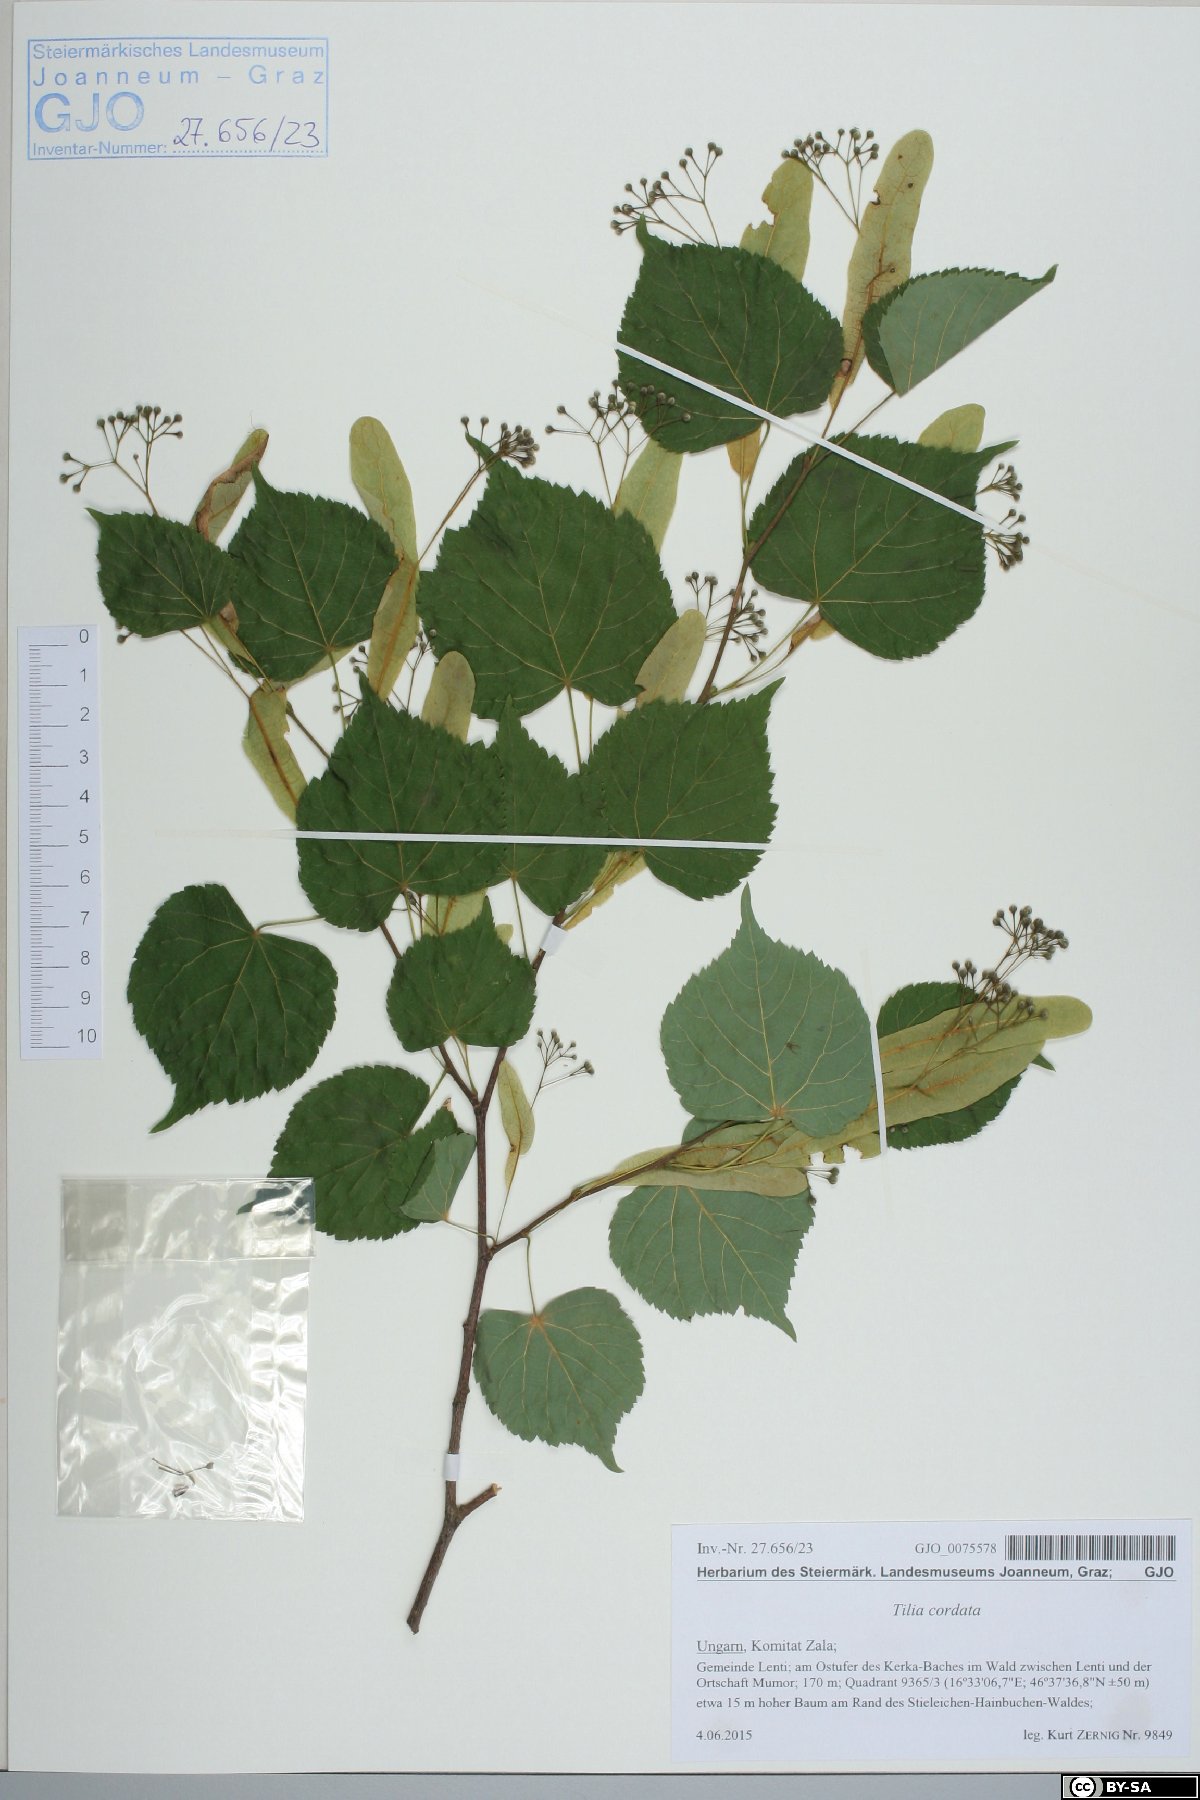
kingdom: Plantae
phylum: Tracheophyta
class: Magnoliopsida
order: Malvales
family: Malvaceae
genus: Tilia
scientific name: Tilia cordata
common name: Small-leaved lime
